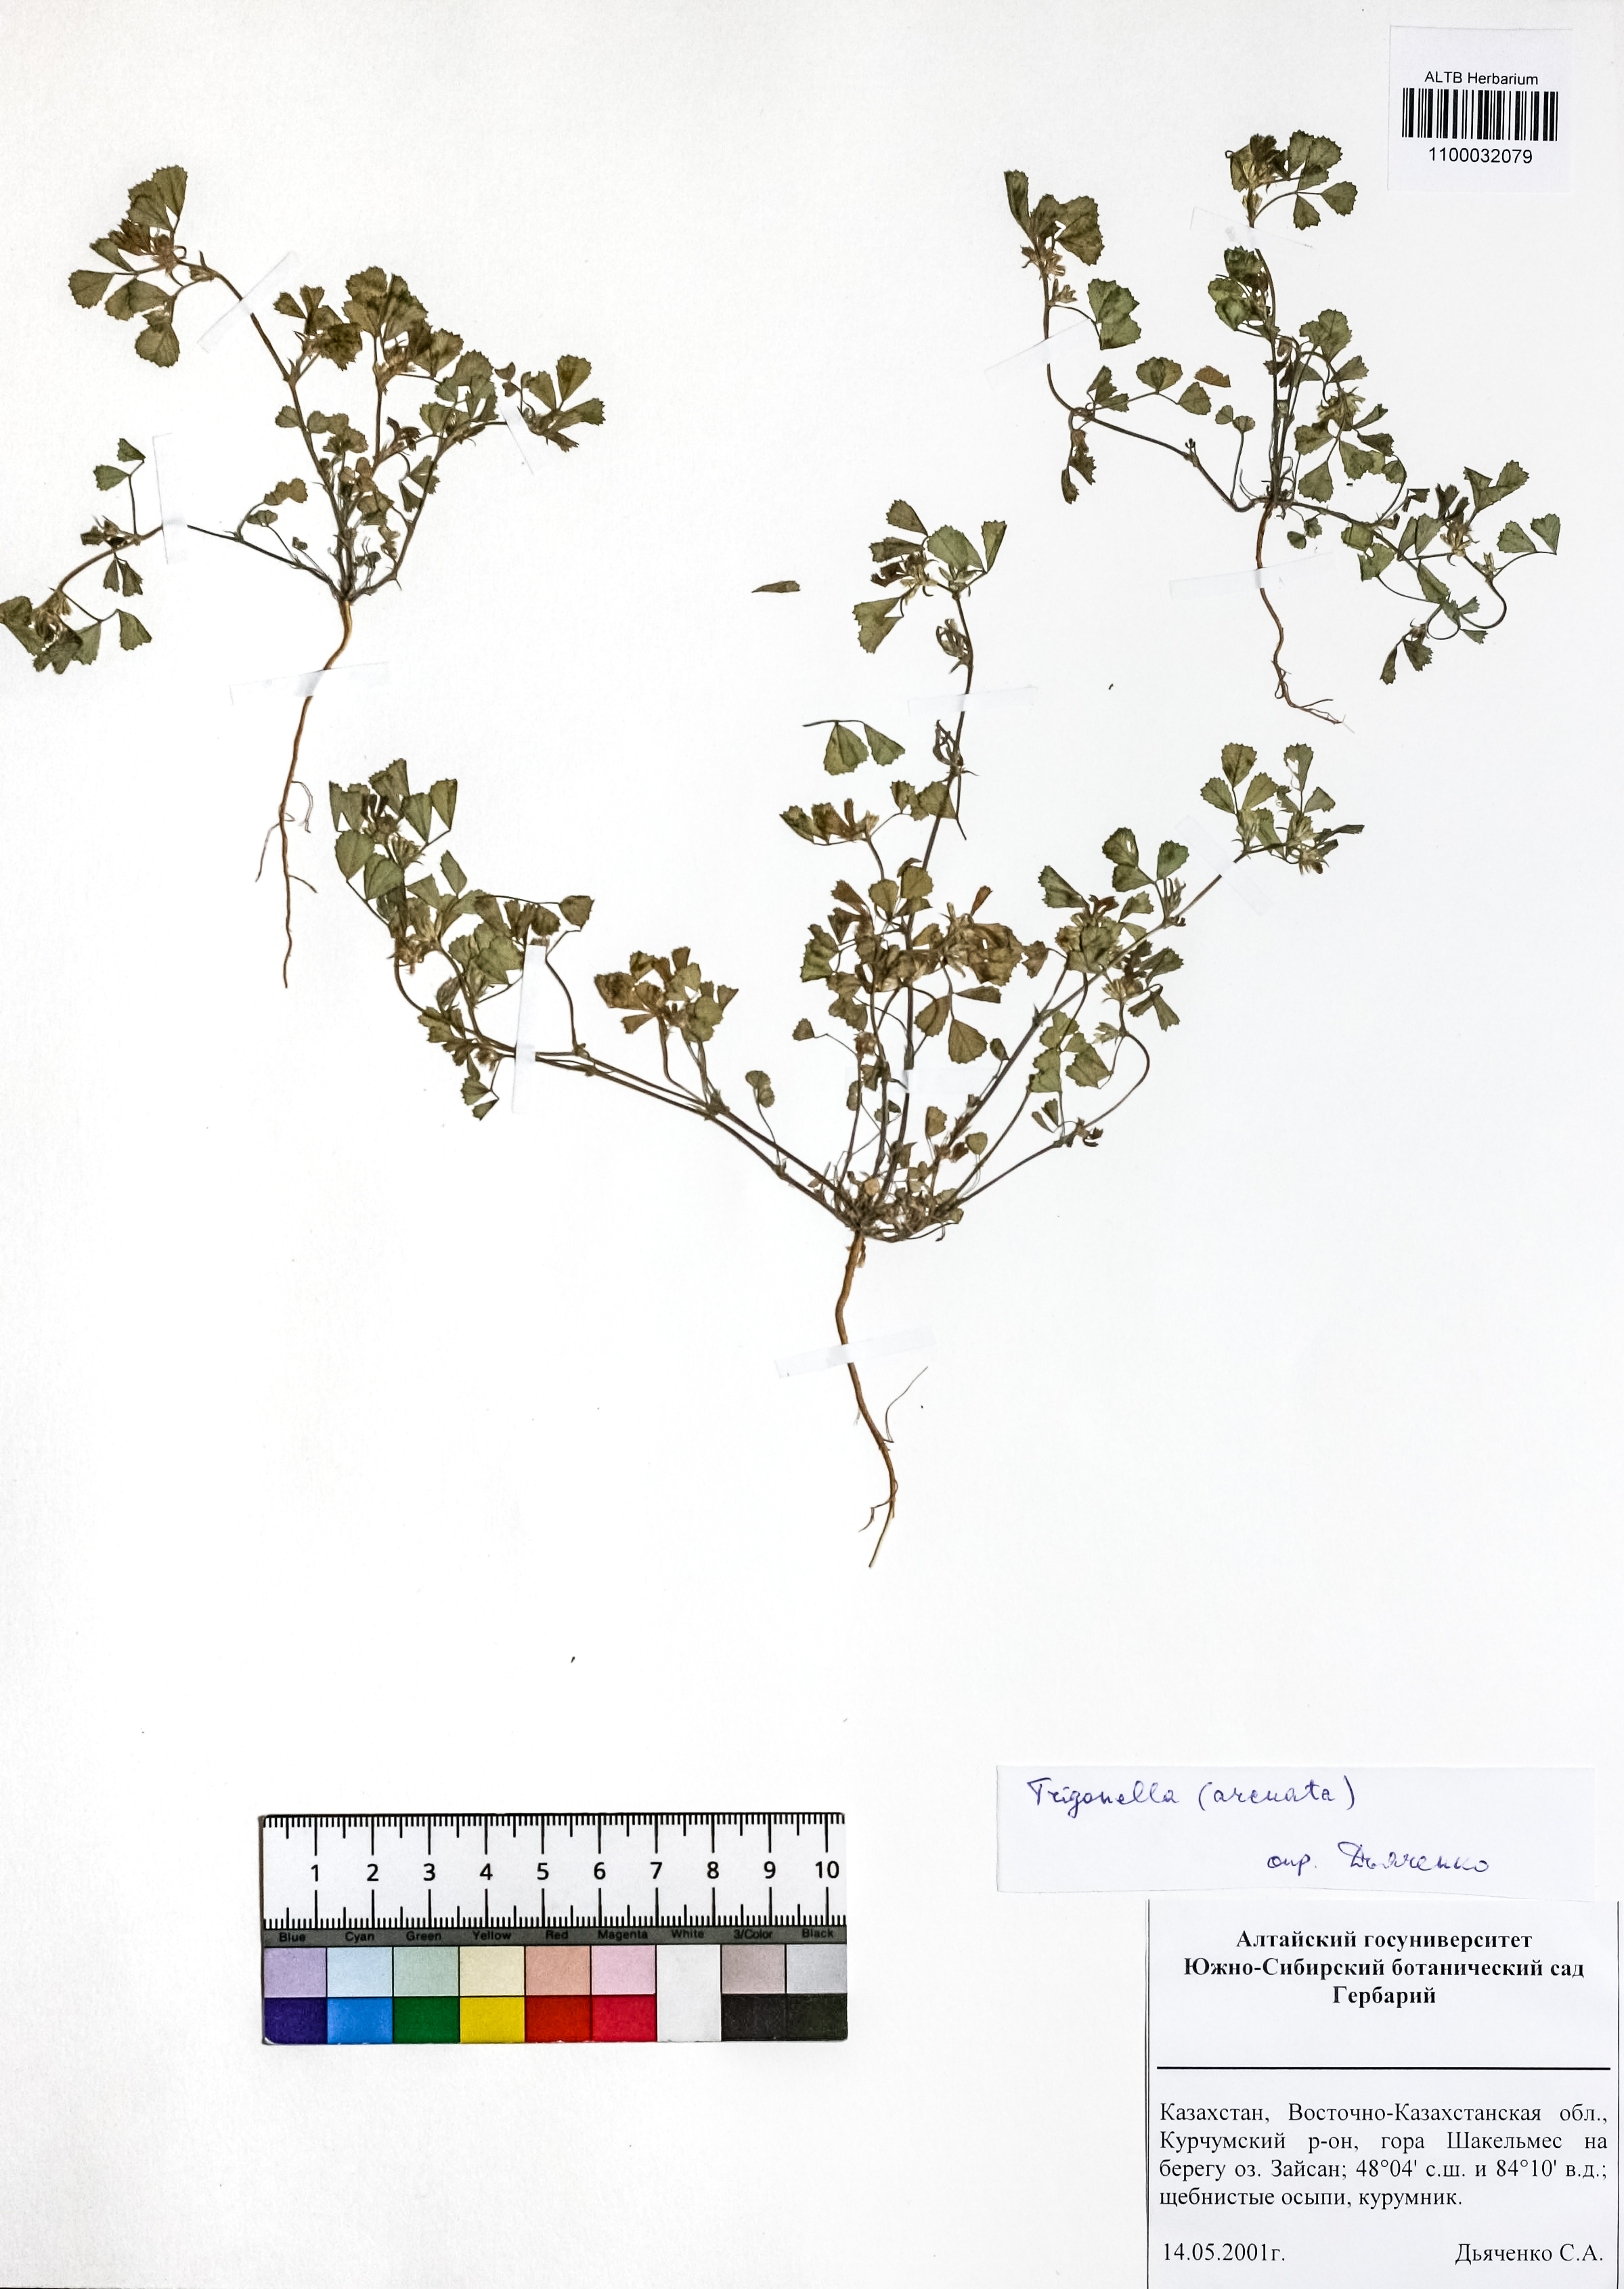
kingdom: Plantae
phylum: Tracheophyta
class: Magnoliopsida
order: Fabales
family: Fabaceae
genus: Medicago
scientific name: Medicago medicaginoides
